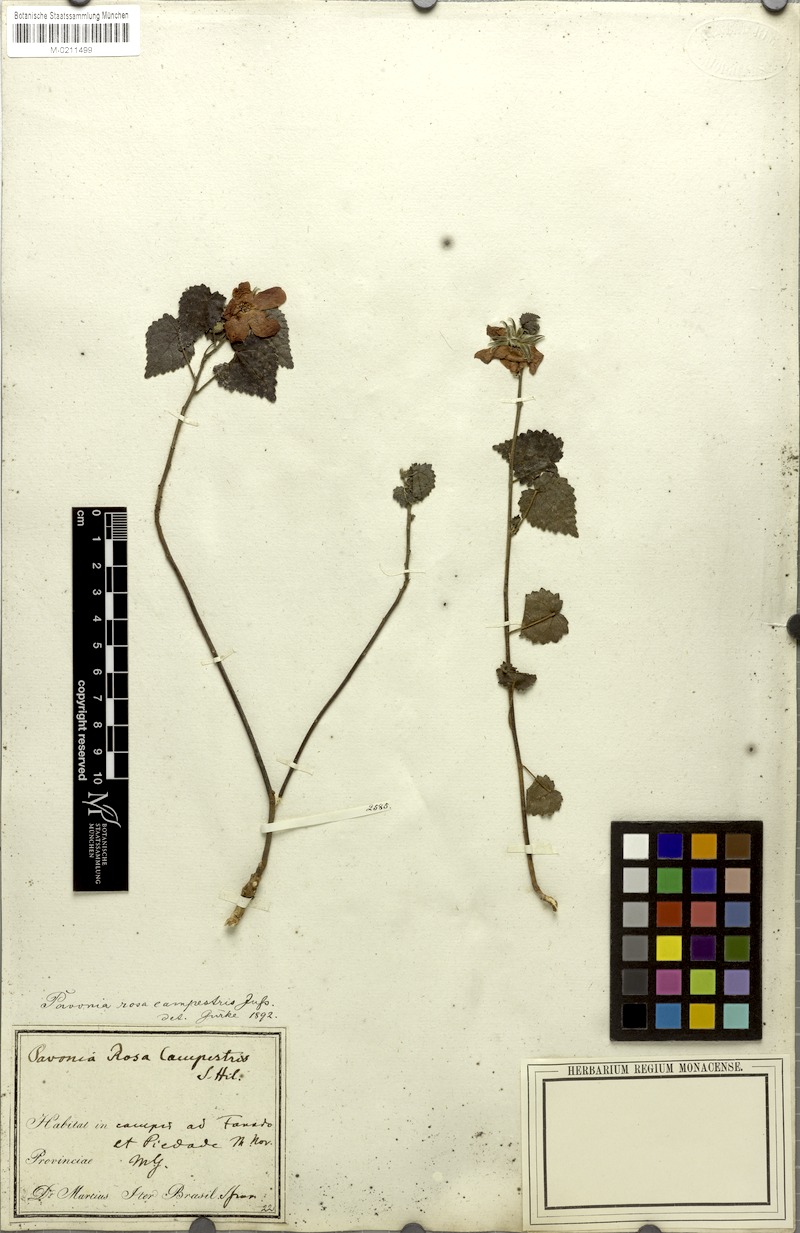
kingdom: Plantae
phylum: Tracheophyta
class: Magnoliopsida
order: Malvales
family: Malvaceae
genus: Pavonia
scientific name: Pavonia rosa-campestris
